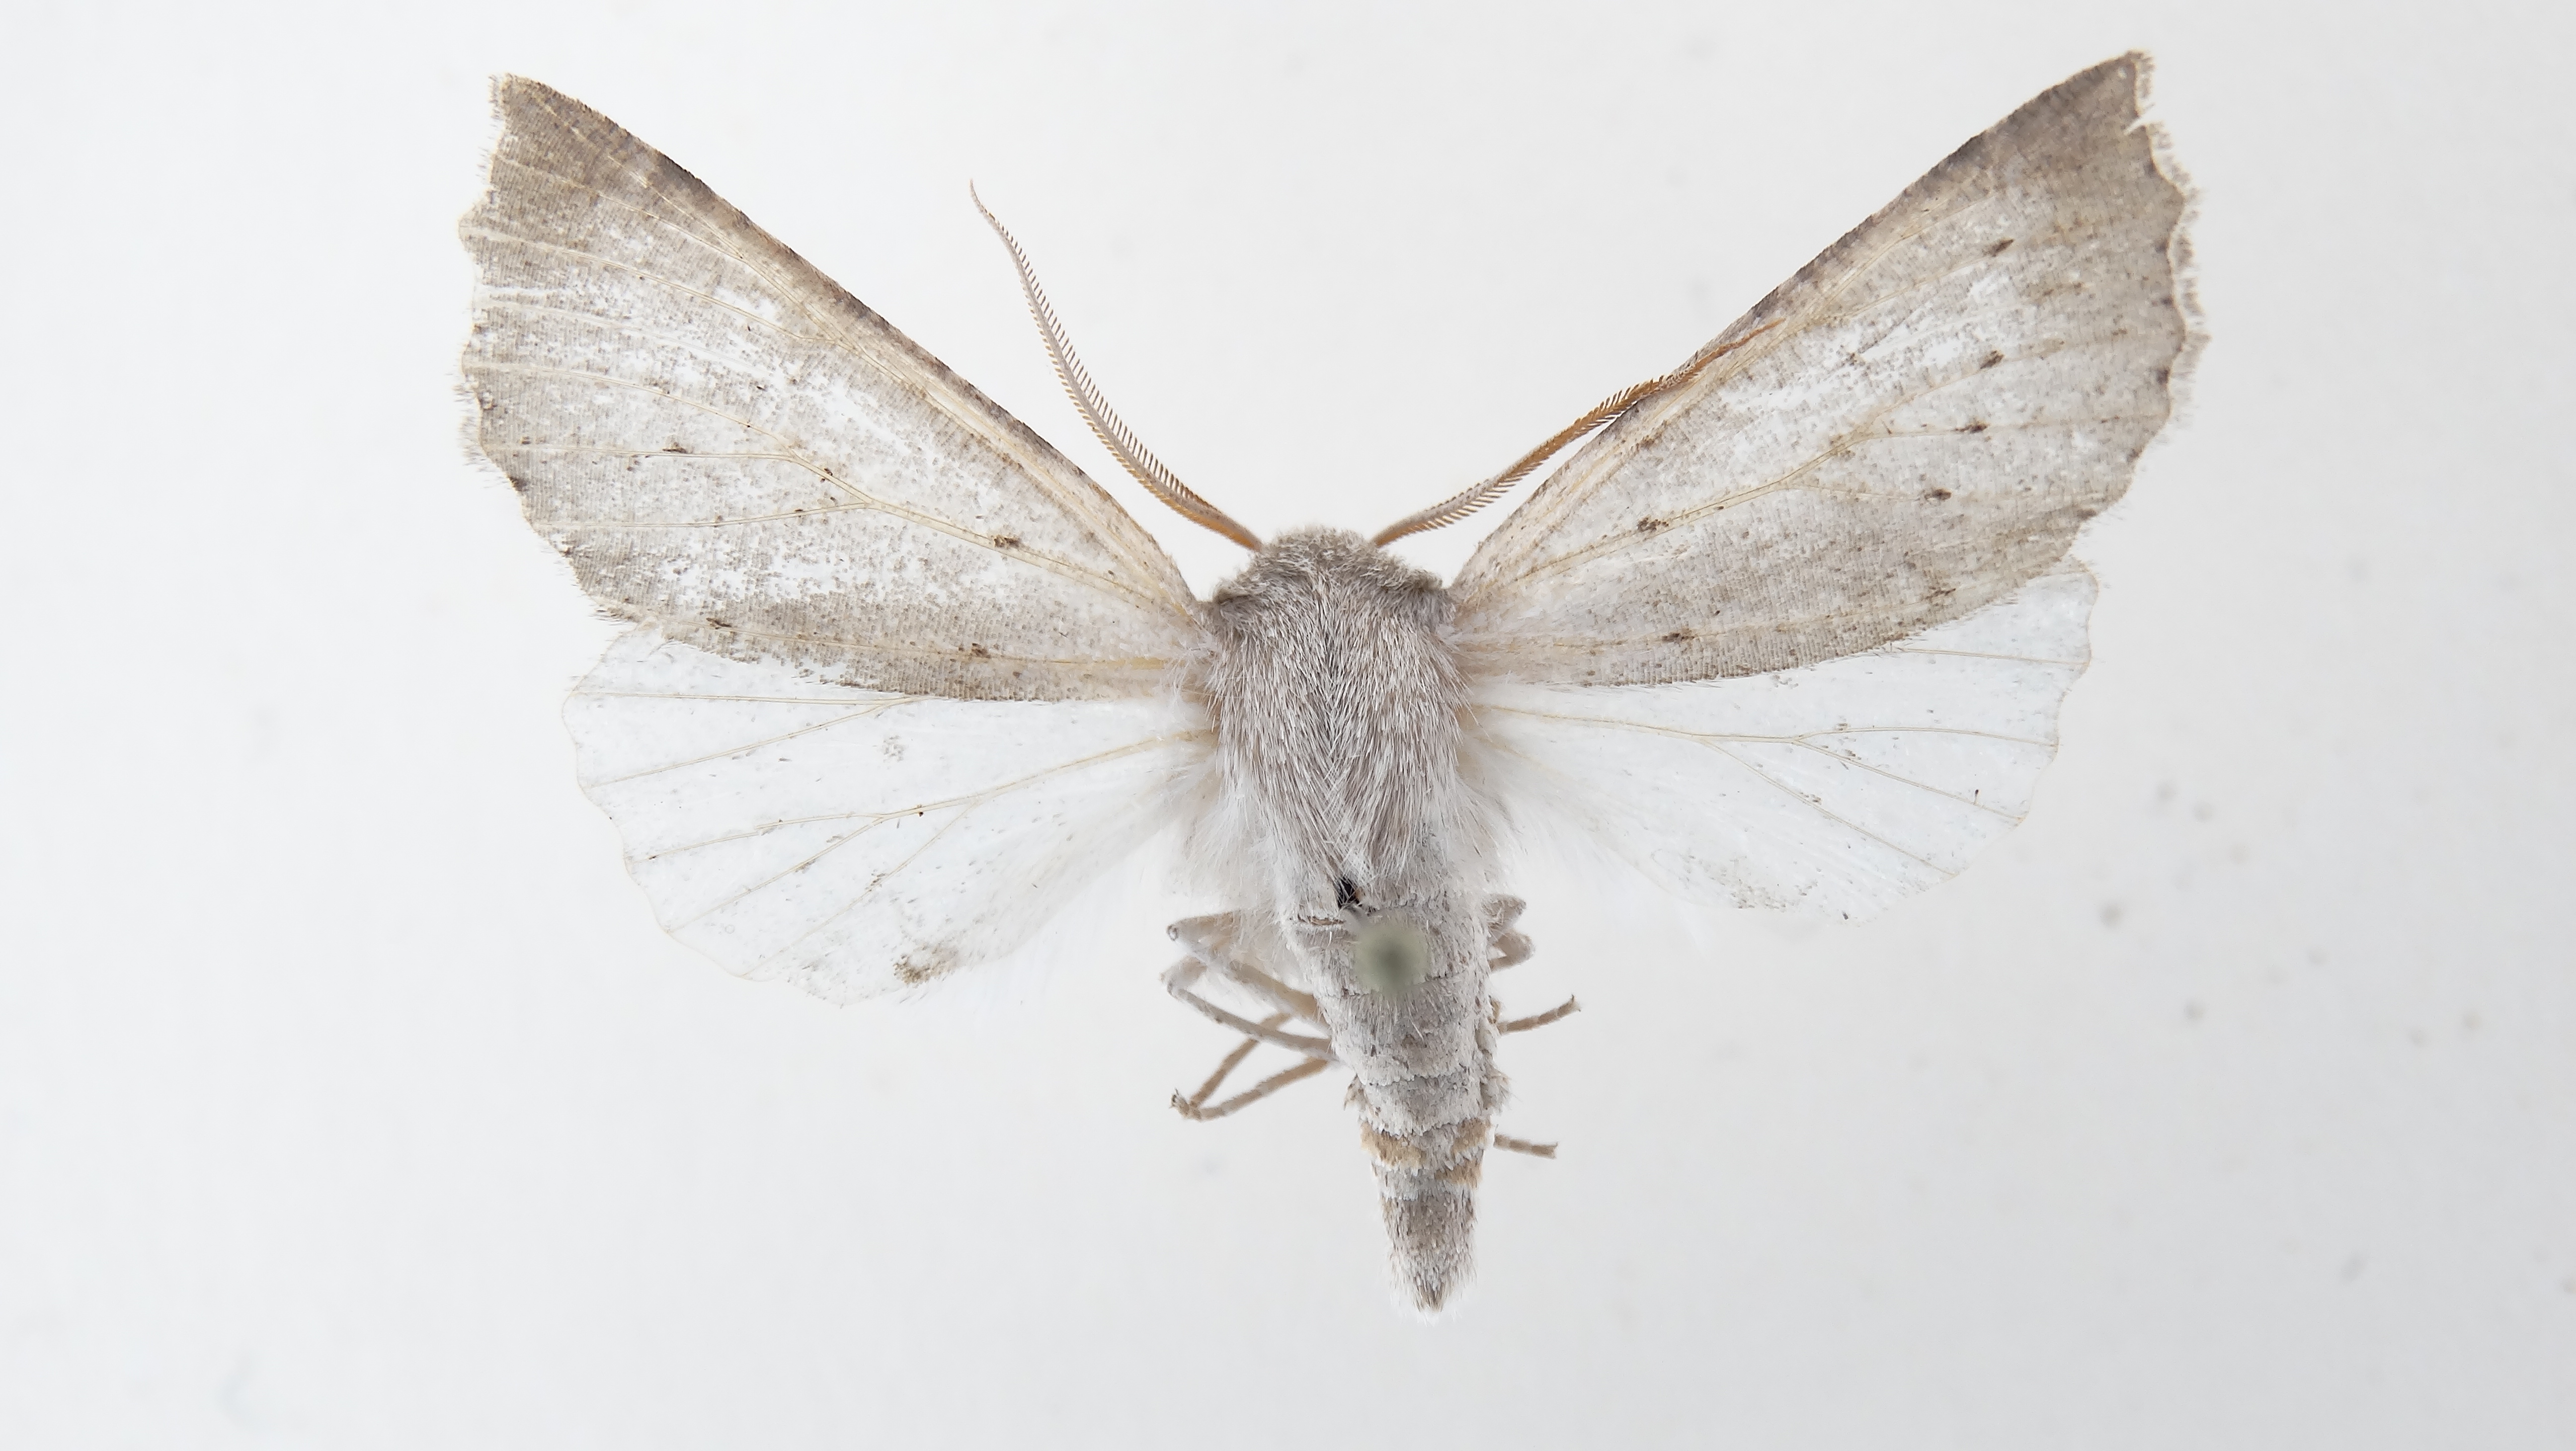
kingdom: Animalia
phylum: Arthropoda
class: Insecta
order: Lepidoptera
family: Geometridae
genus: Mallomus
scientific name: Mallomus batiola
